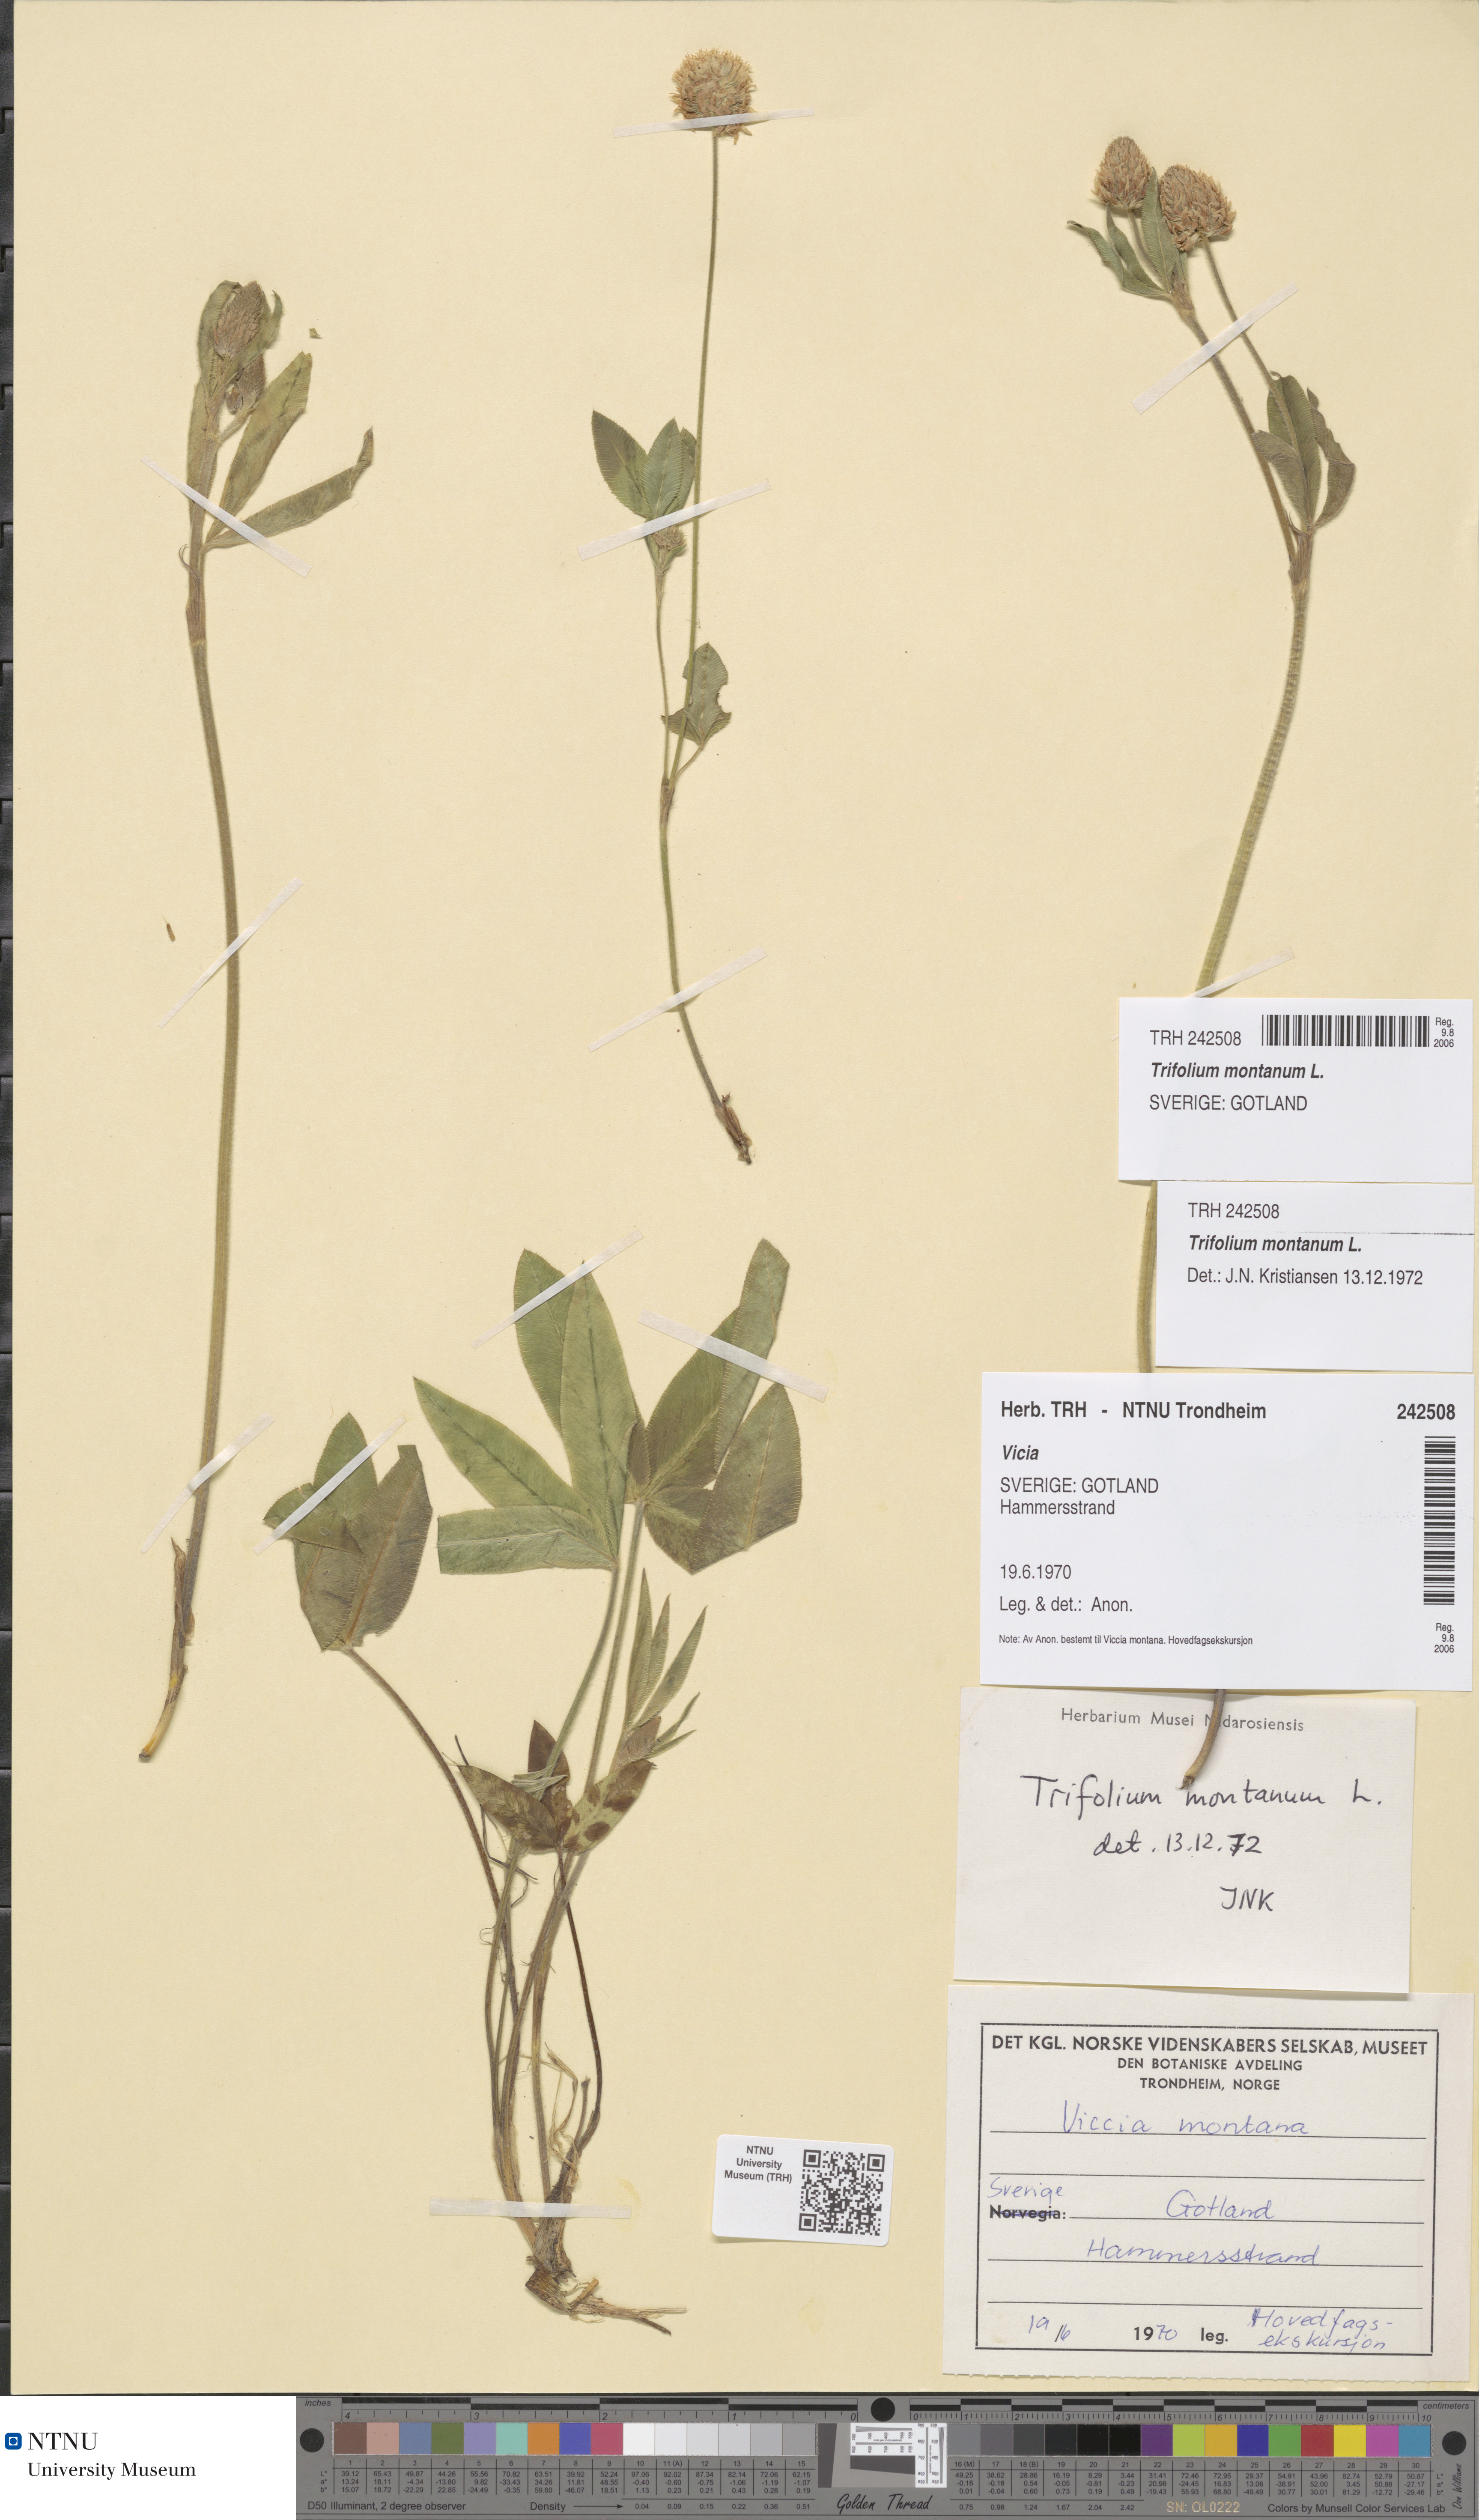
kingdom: Plantae
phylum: Tracheophyta
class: Magnoliopsida
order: Fabales
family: Fabaceae
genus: Trifolium
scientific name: Trifolium montanum
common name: Mountain clover
